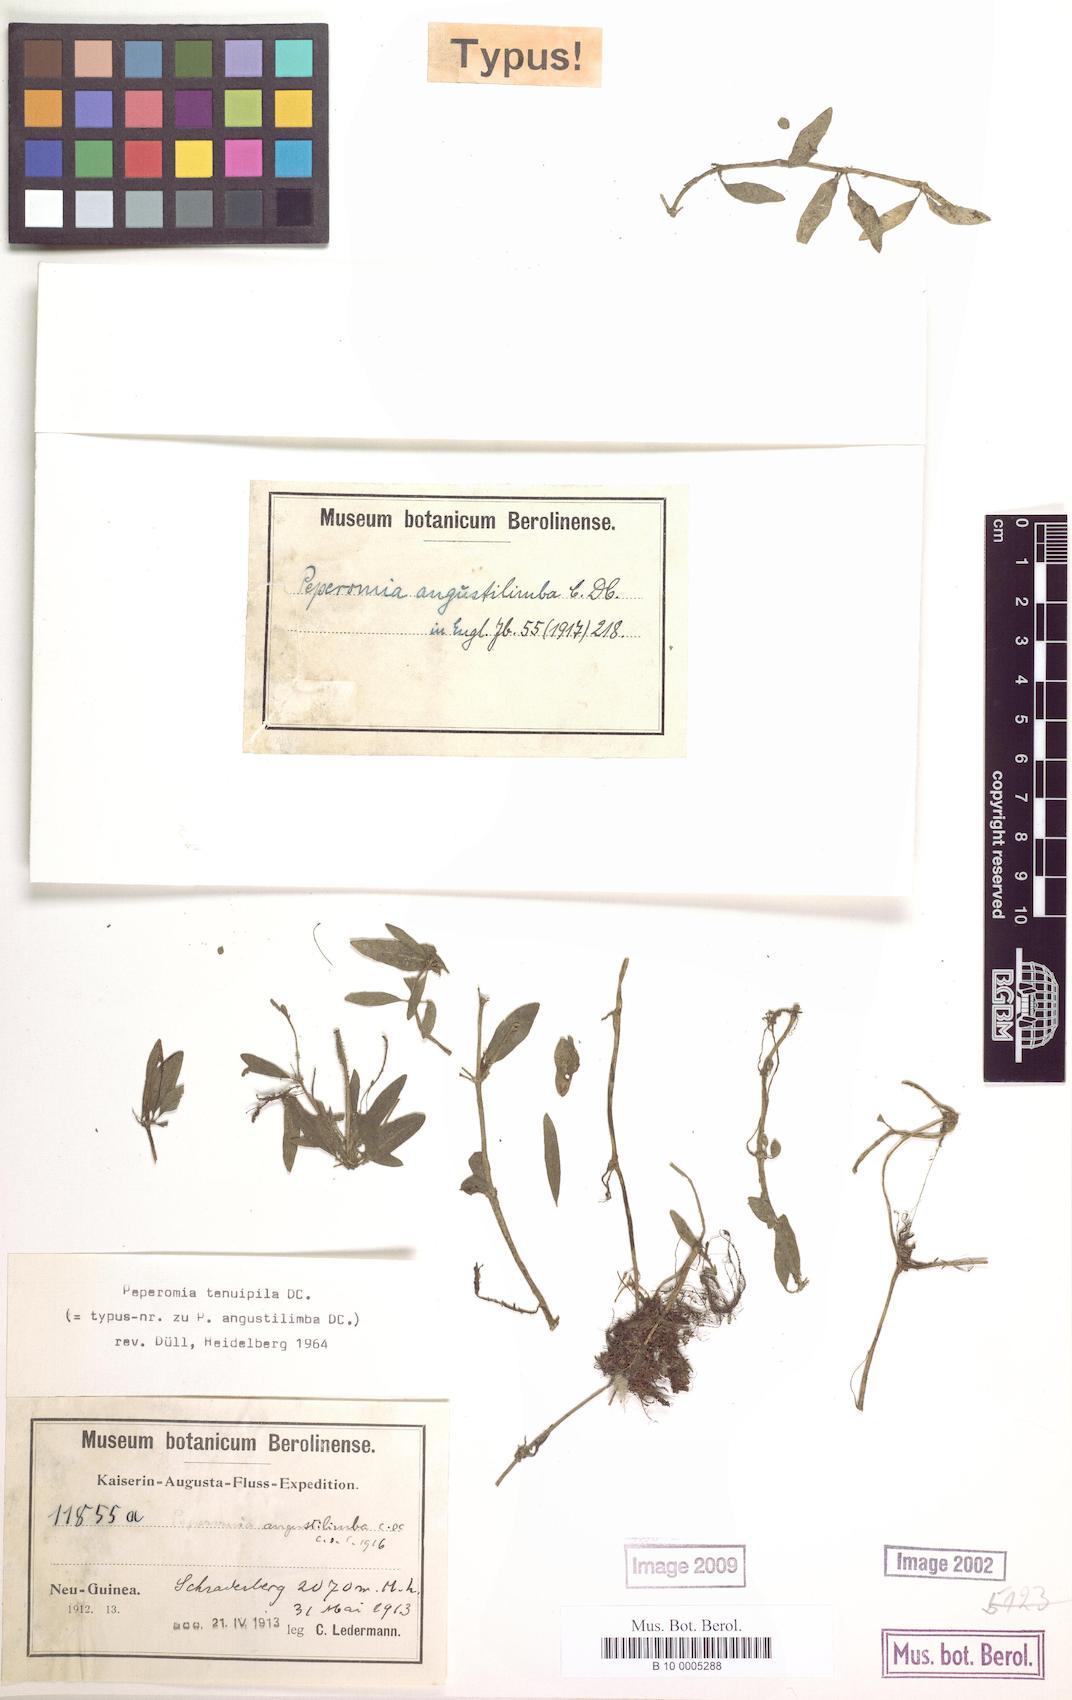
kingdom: Plantae
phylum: Tracheophyta
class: Magnoliopsida
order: Piperales
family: Piperaceae
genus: Peperomia
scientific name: Peperomia tenuipila
